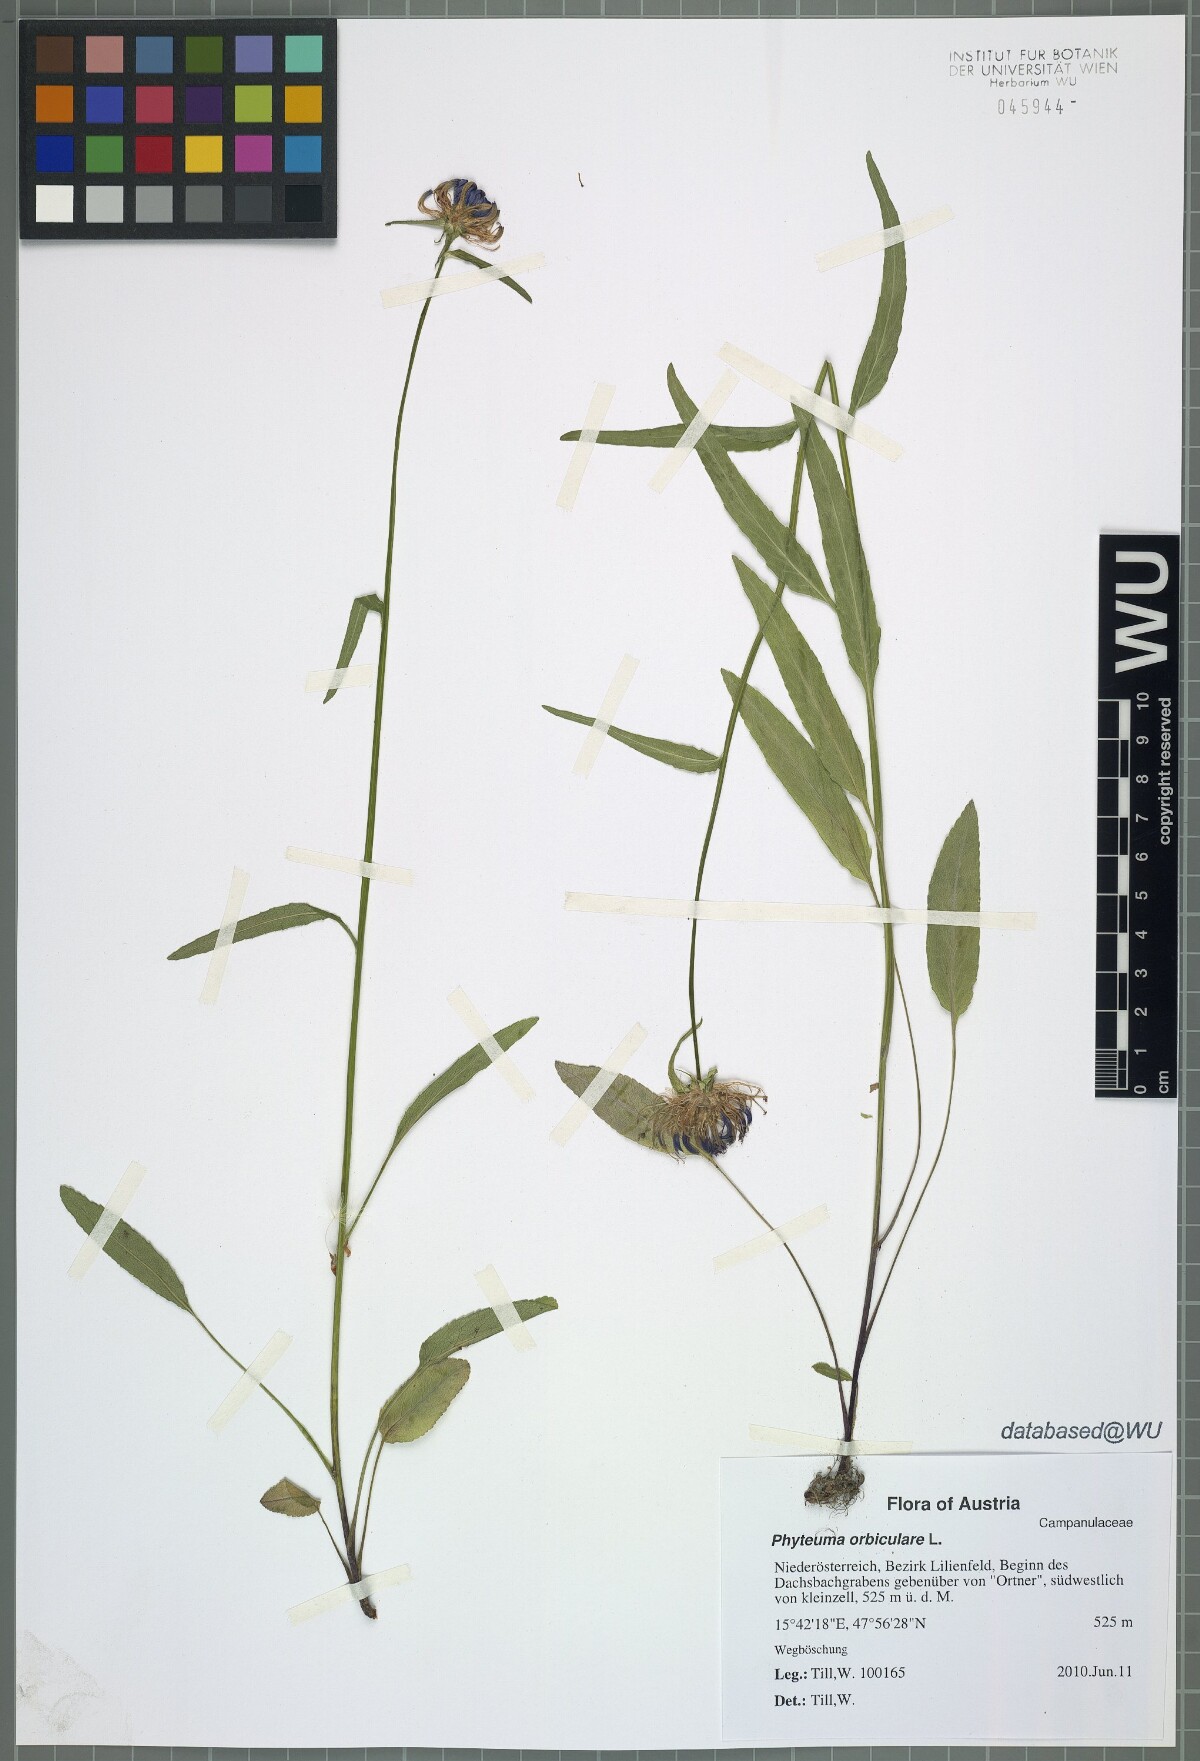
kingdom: Plantae
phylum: Tracheophyta
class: Magnoliopsida
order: Asterales
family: Campanulaceae
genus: Phyteuma
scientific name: Phyteuma orbiculare
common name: Round-headed rampion
